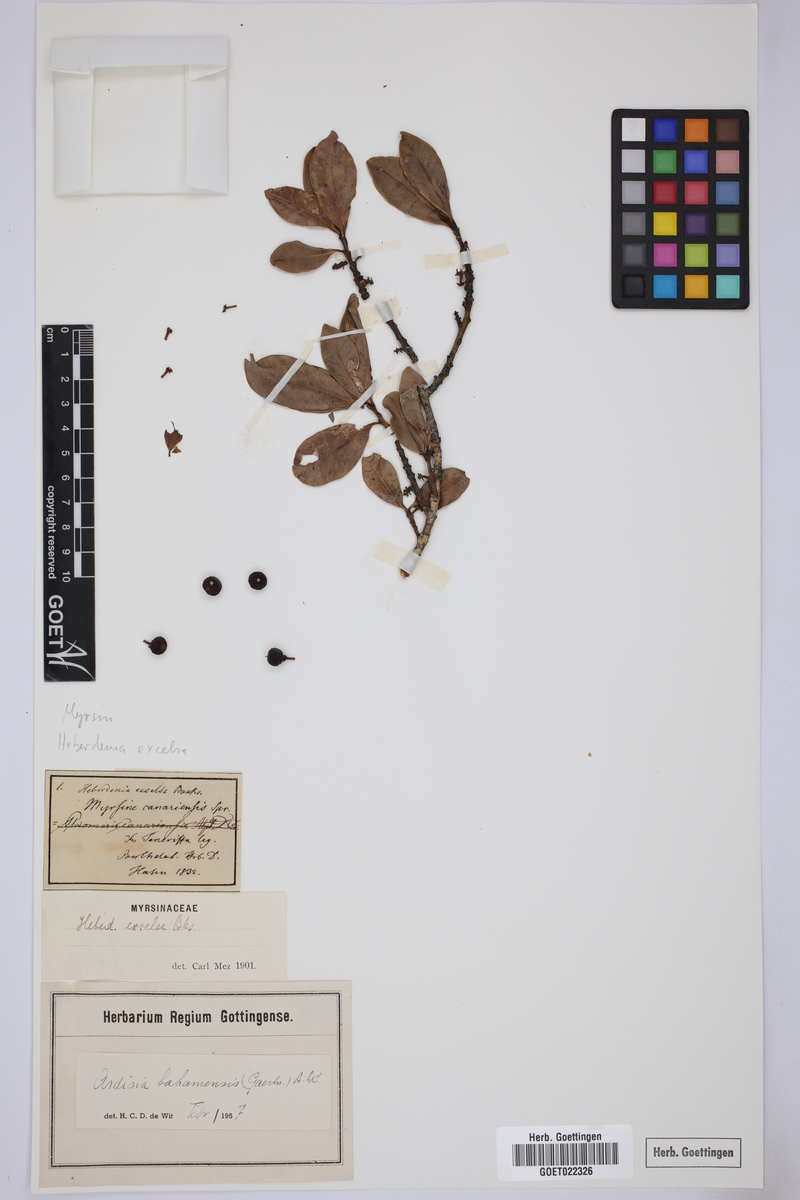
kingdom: Plantae
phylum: Tracheophyta
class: Magnoliopsida
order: Ericales
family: Primulaceae
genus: Heberdenia
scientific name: Heberdenia excelsa
